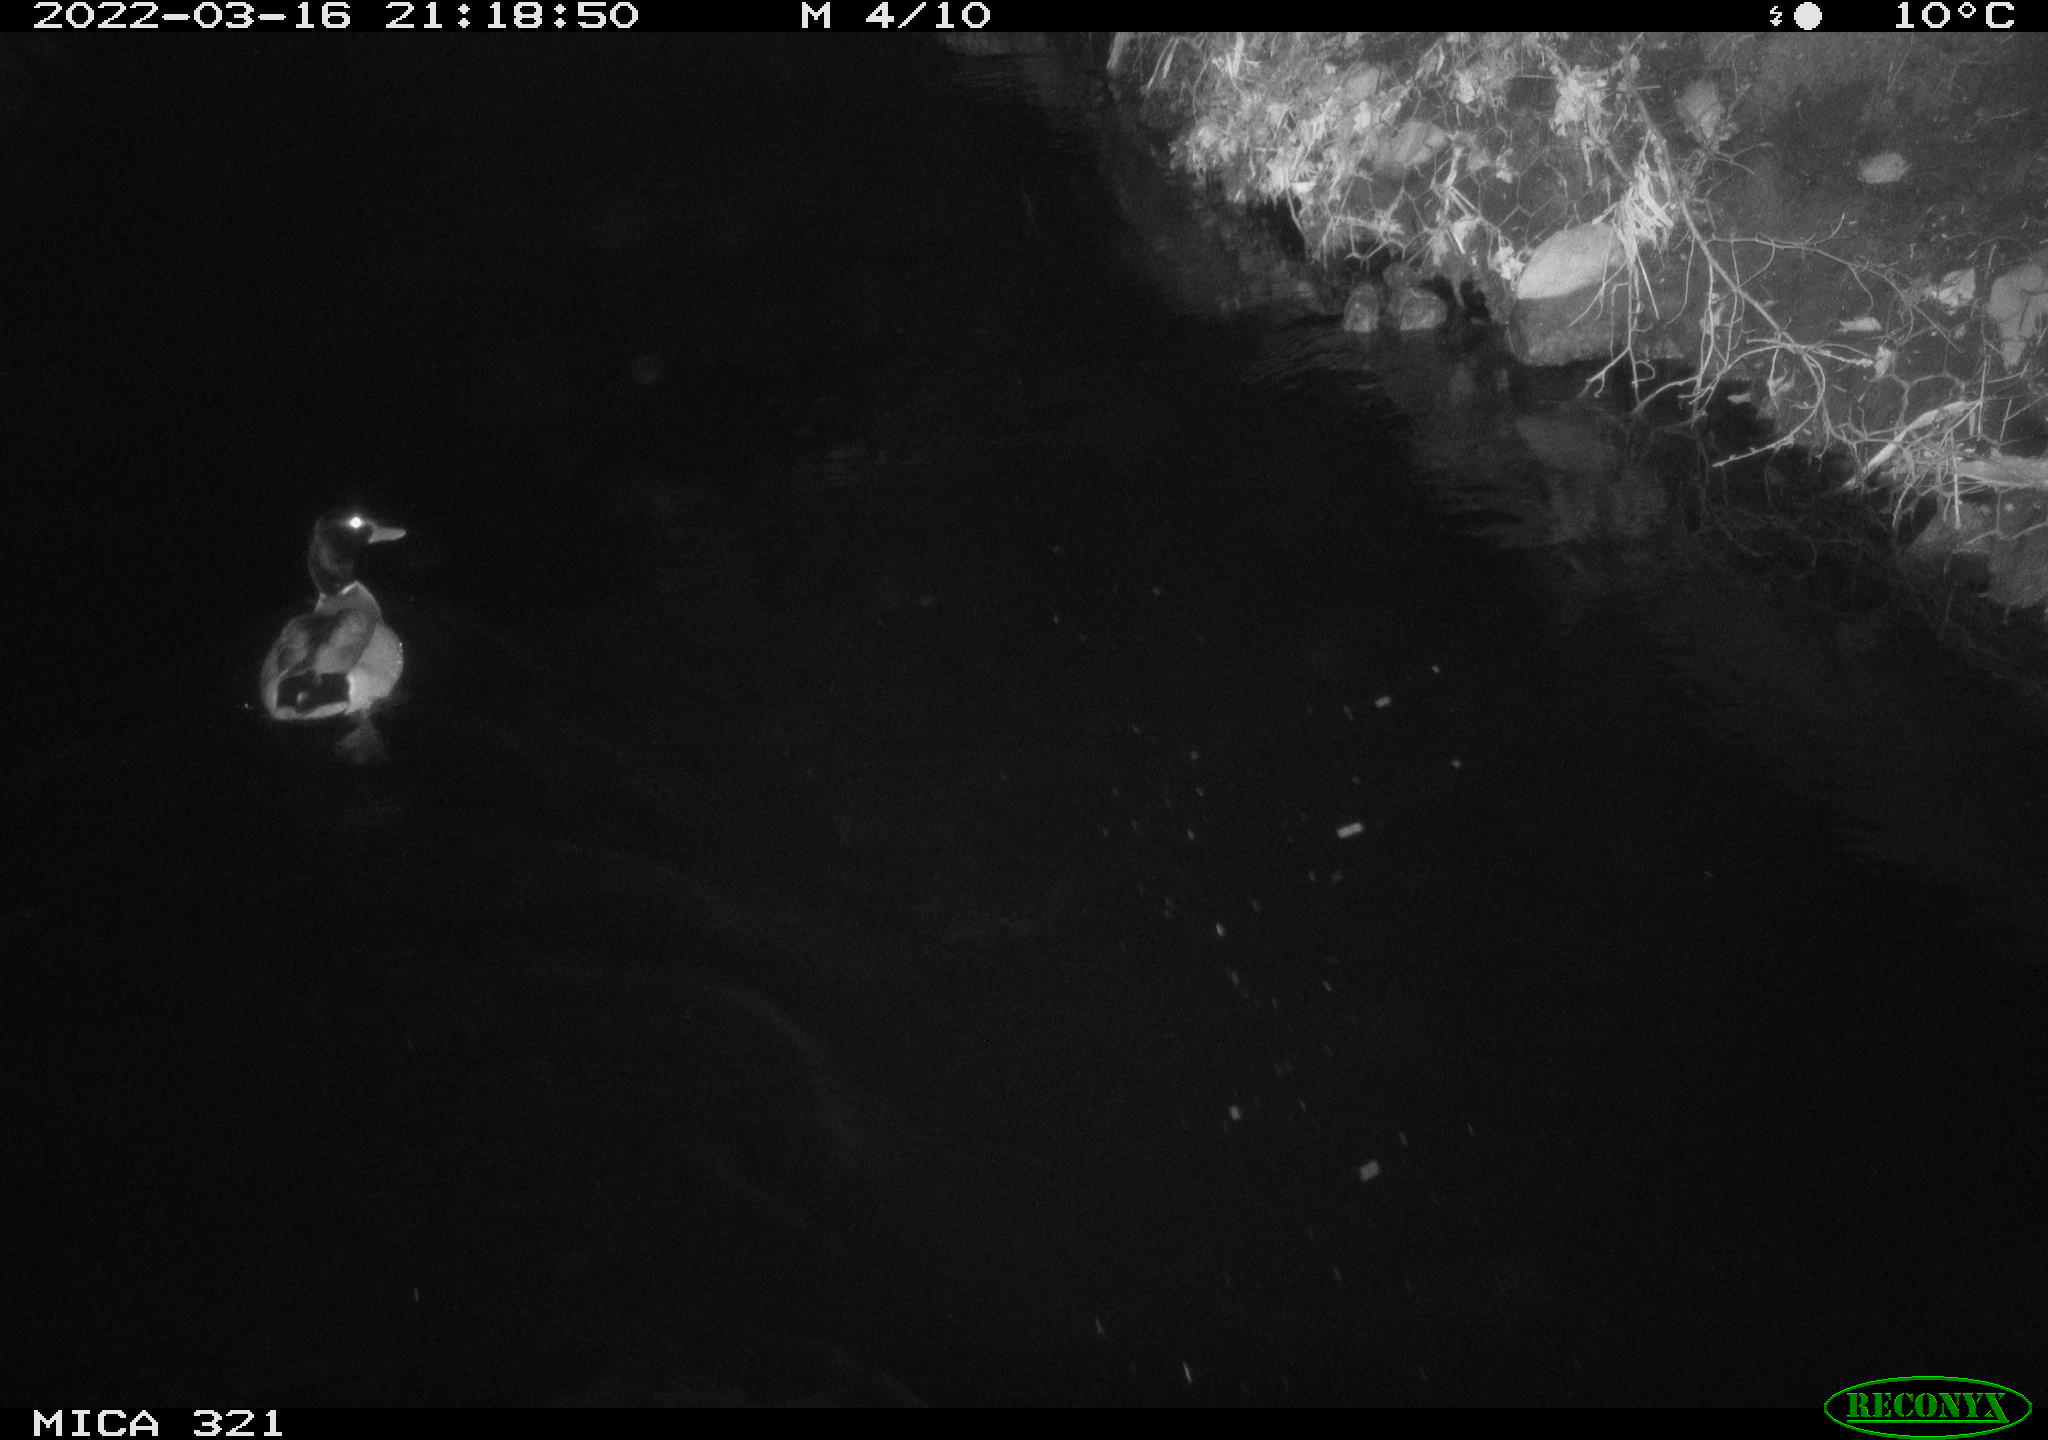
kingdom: Animalia
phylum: Chordata
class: Aves
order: Anseriformes
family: Anatidae
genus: Anas
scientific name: Anas platyrhynchos
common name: Mallard
